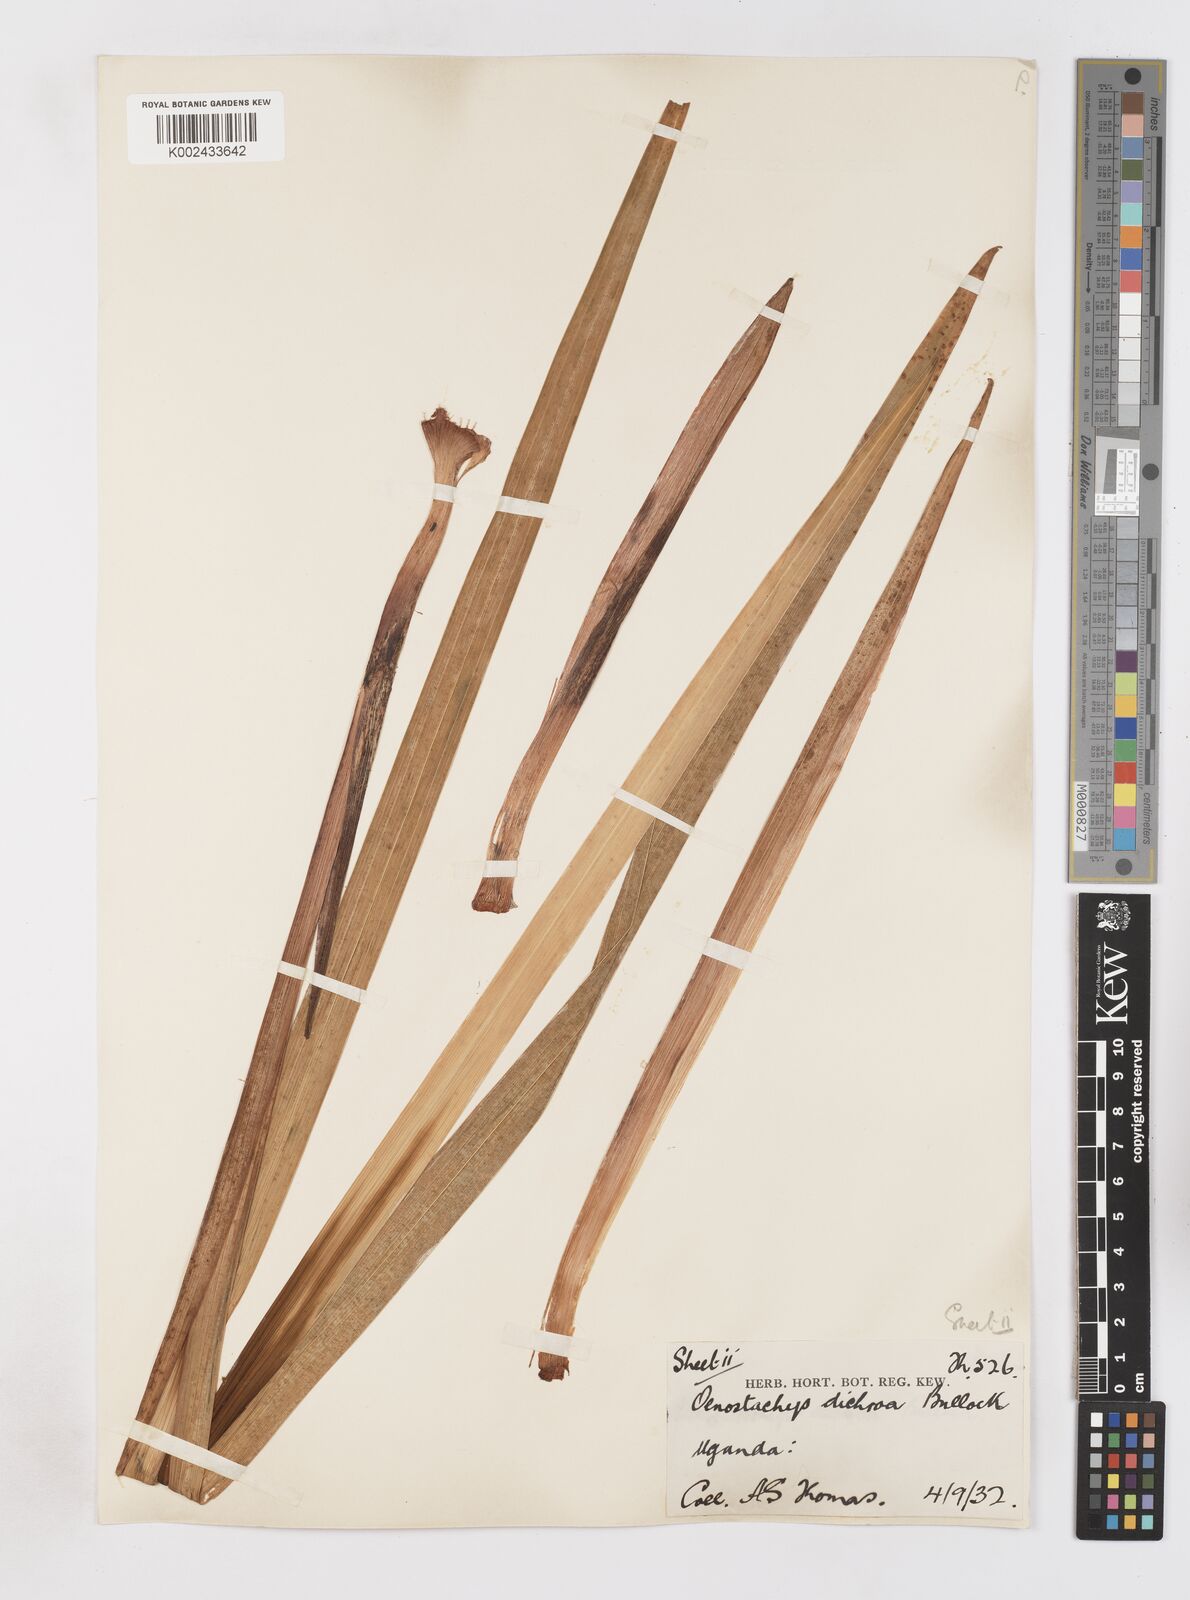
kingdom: Plantae
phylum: Tracheophyta
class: Liliopsida
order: Asparagales
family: Iridaceae
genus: Gladiolus
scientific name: Gladiolus dichrous
